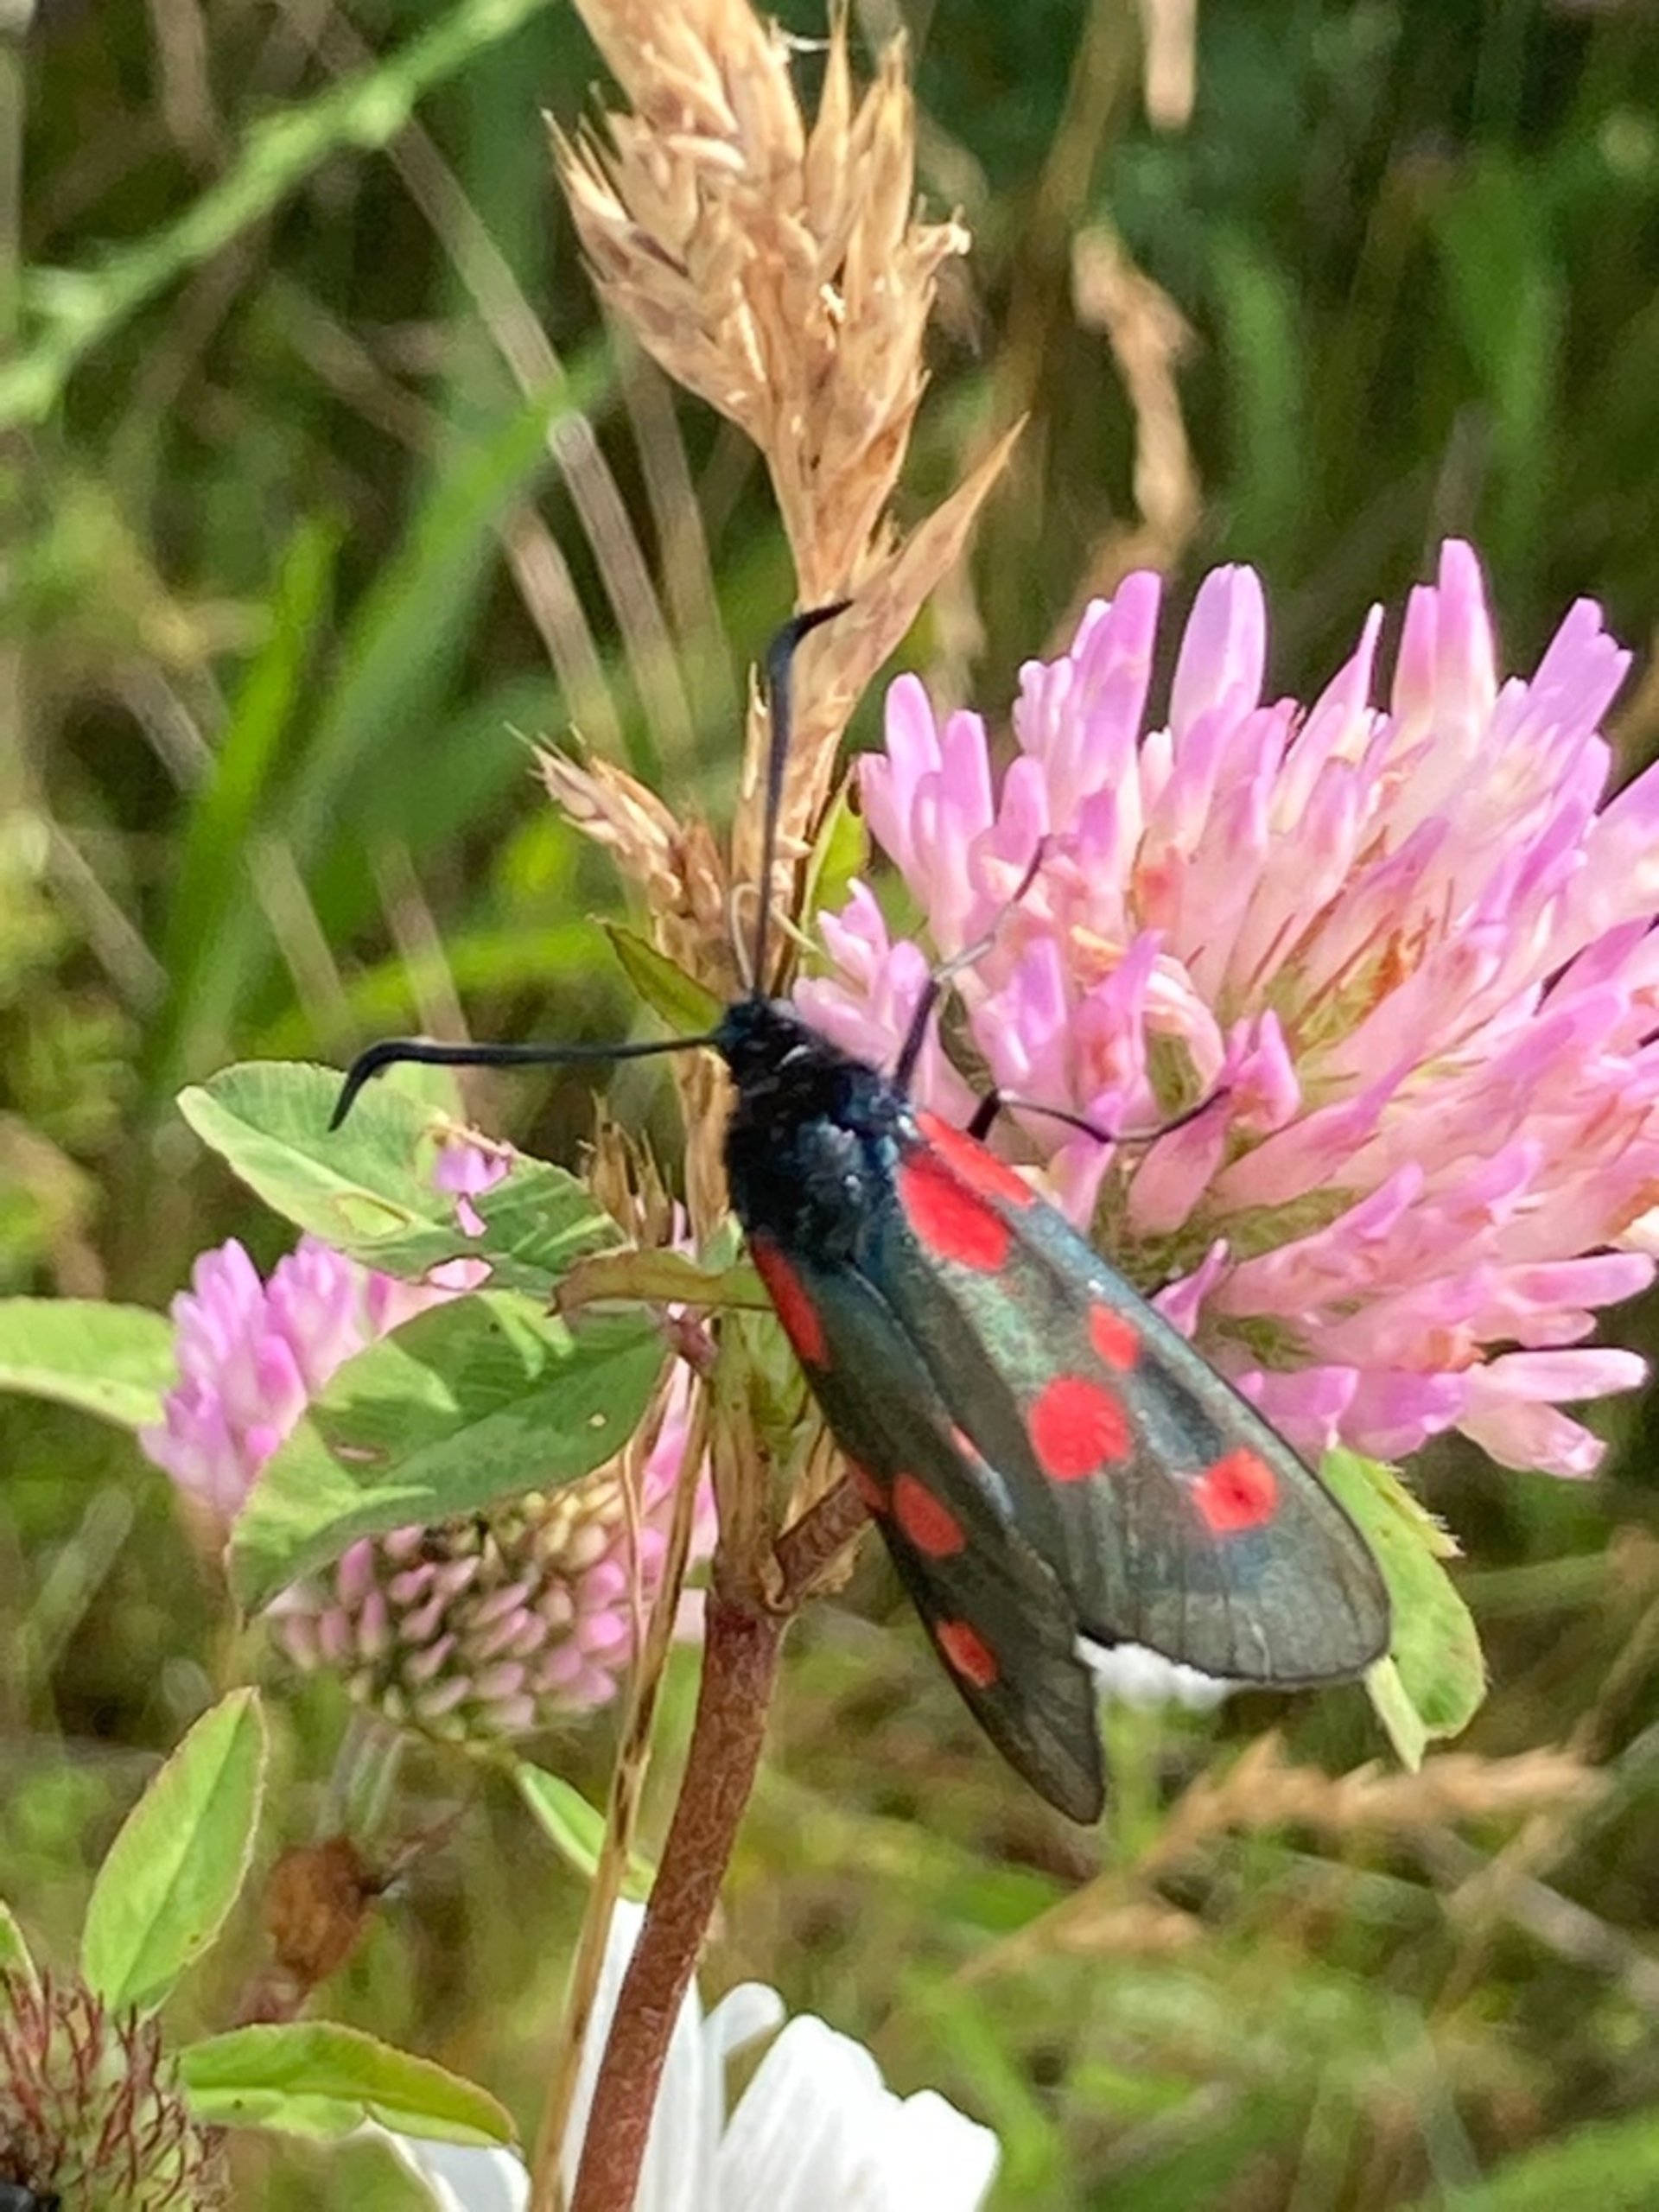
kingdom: Animalia
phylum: Arthropoda
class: Insecta
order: Lepidoptera
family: Zygaenidae
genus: Zygaena
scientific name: Zygaena lonicerae
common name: Femplettet køllesværmer
